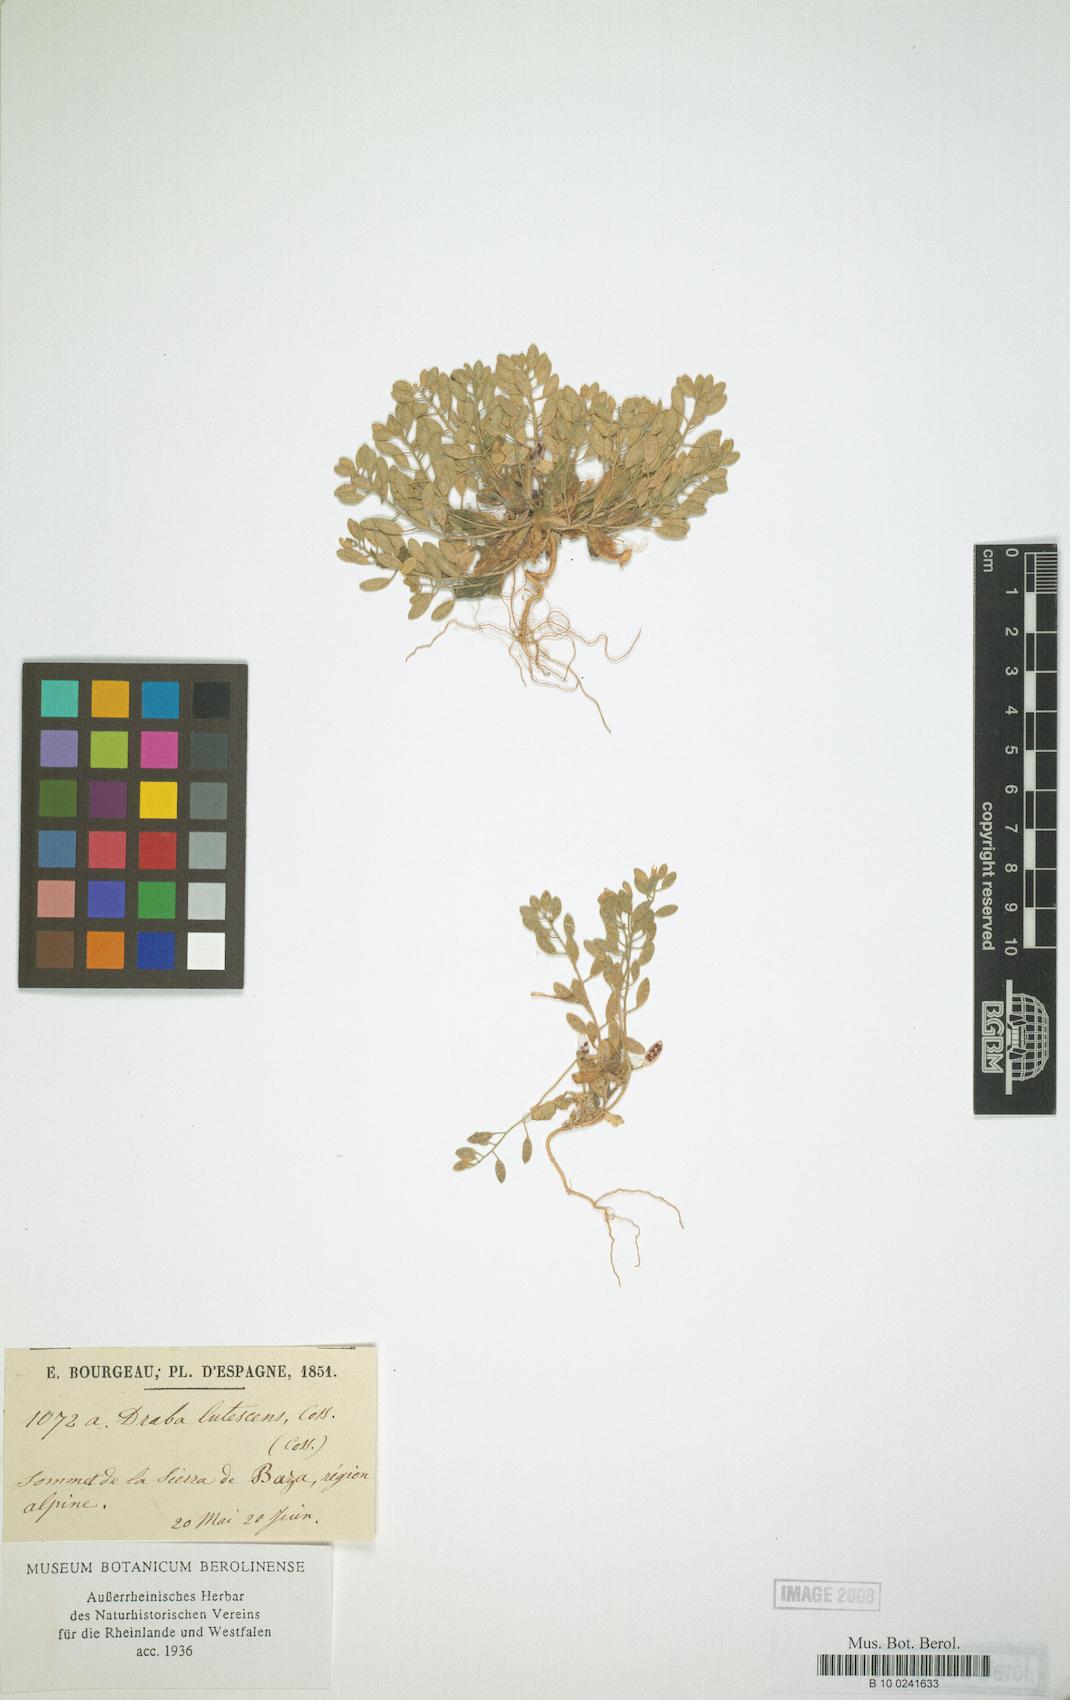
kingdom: Plantae
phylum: Tracheophyta
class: Magnoliopsida
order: Brassicales
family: Brassicaceae
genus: Draba
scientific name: Draba lutescens
